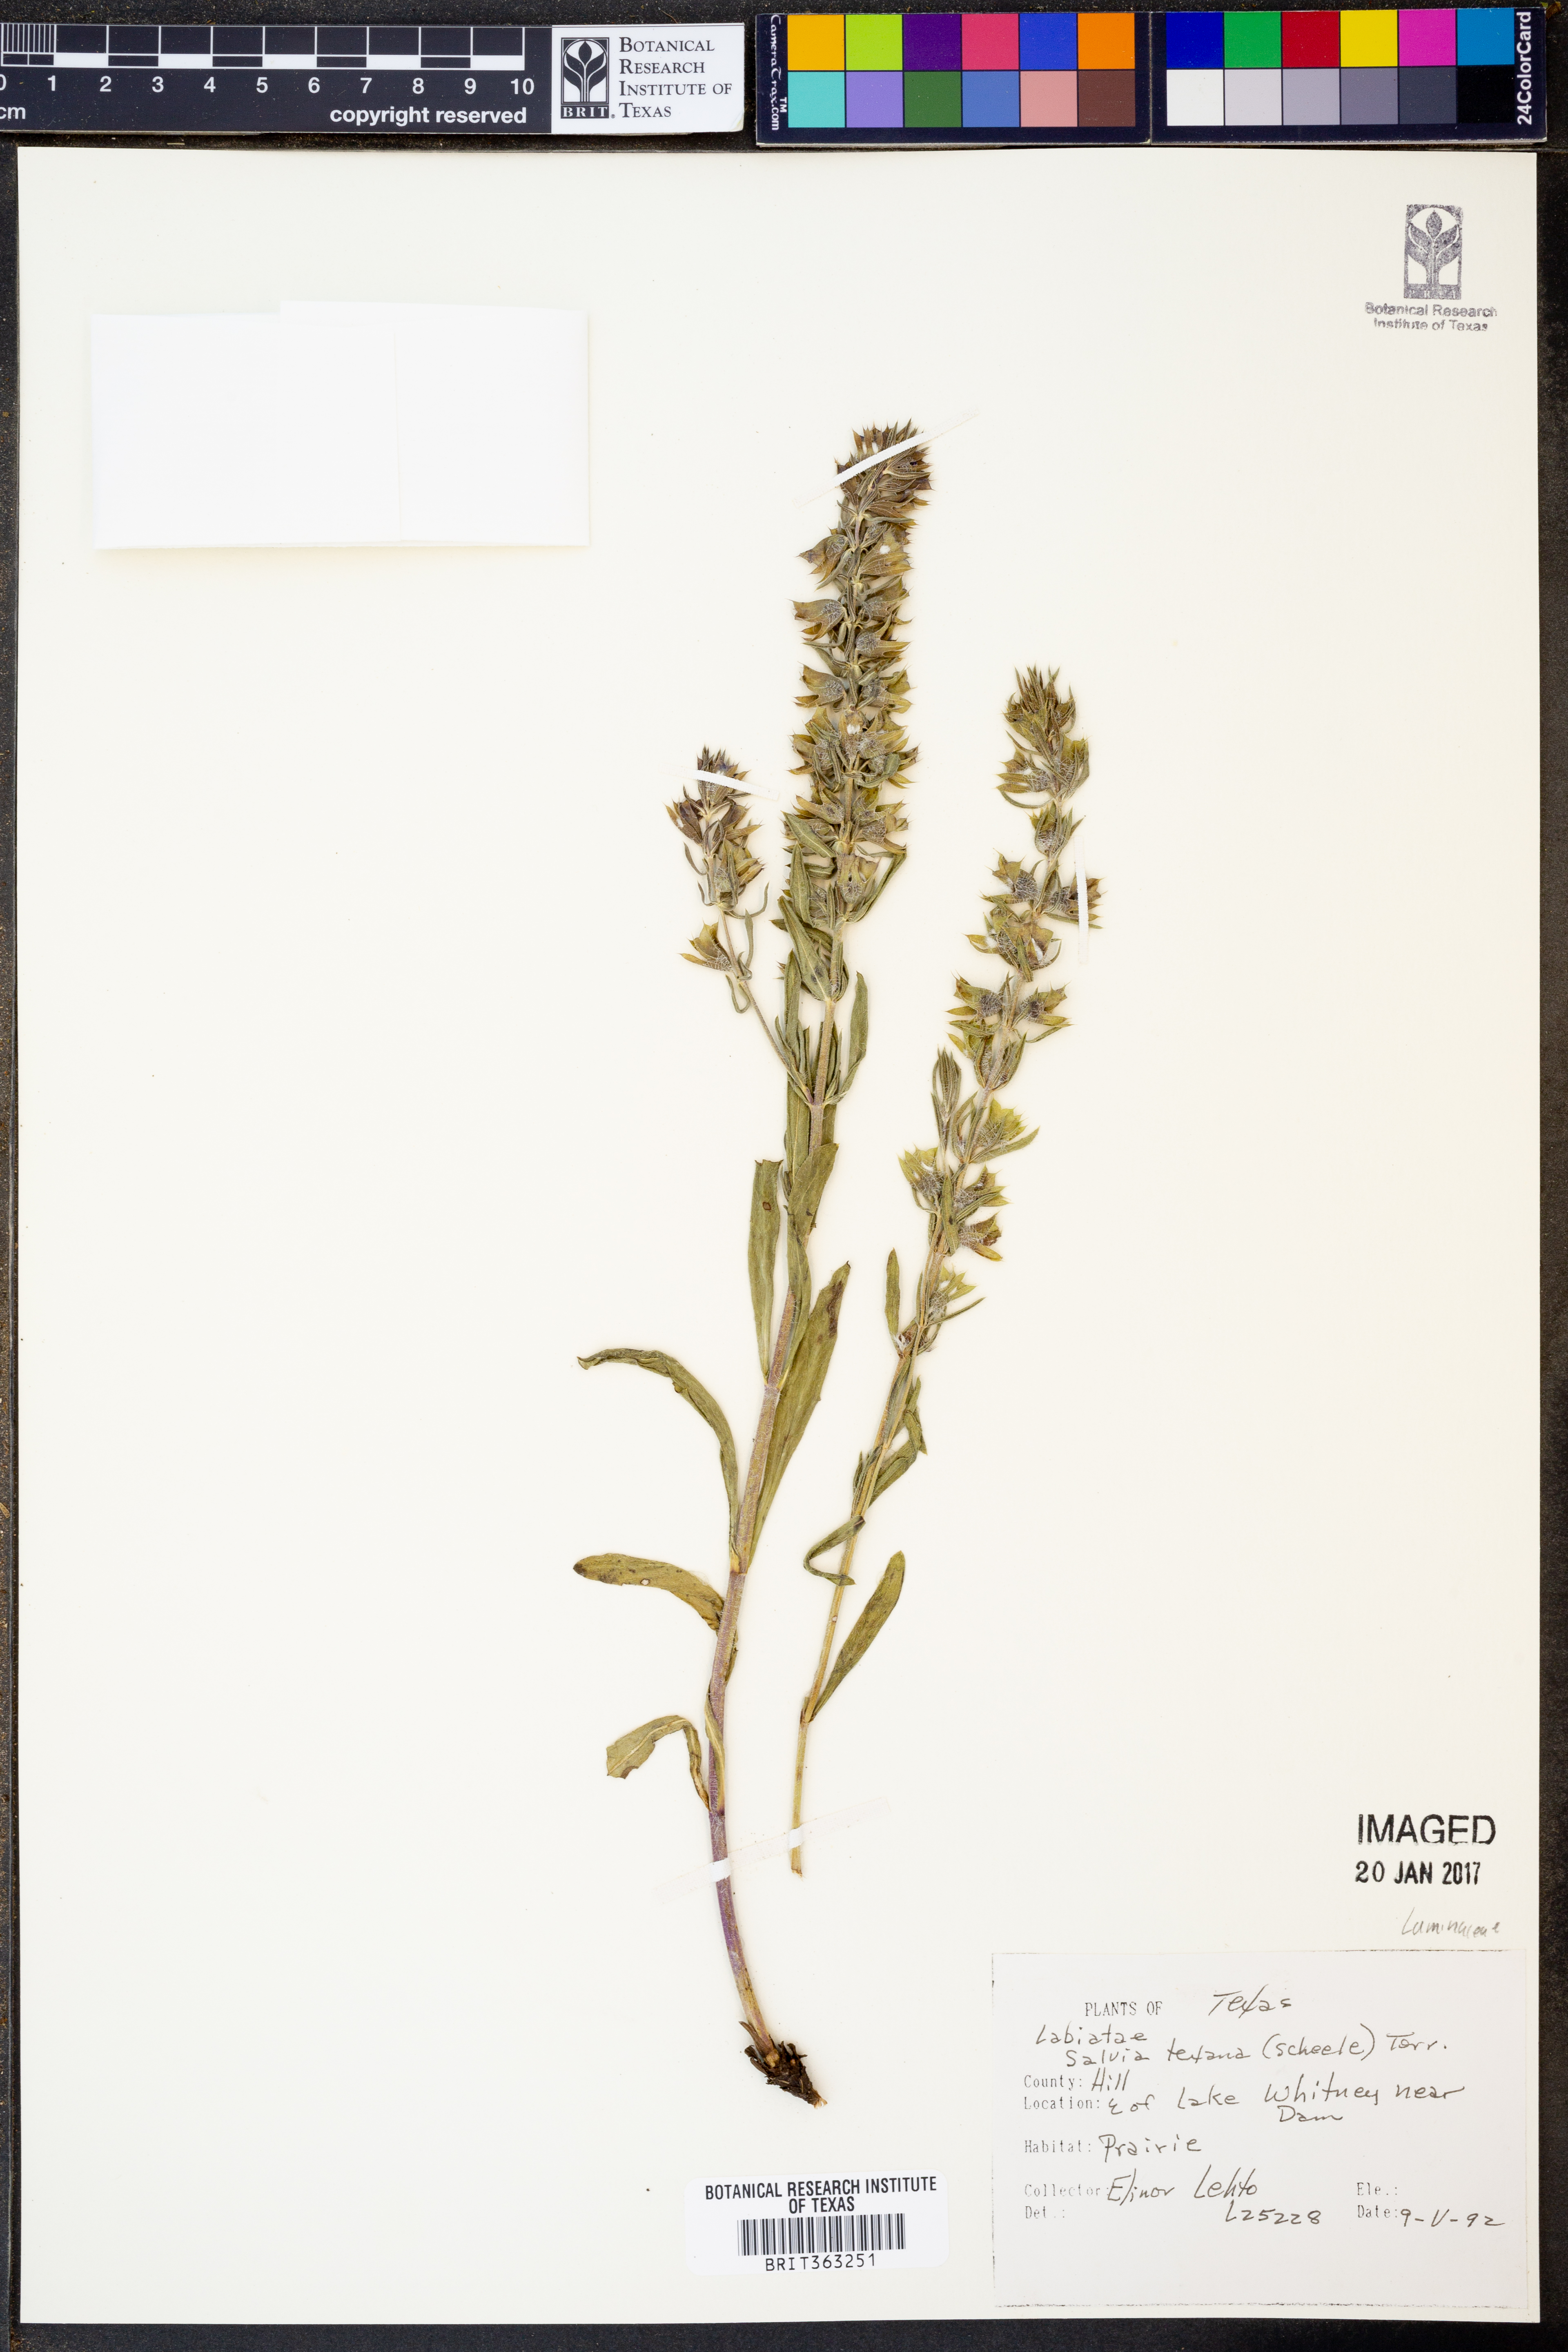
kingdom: Plantae
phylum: Tracheophyta
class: Magnoliopsida
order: Lamiales
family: Lamiaceae
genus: Salvia
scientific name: Salvia texana
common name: Texas sage
